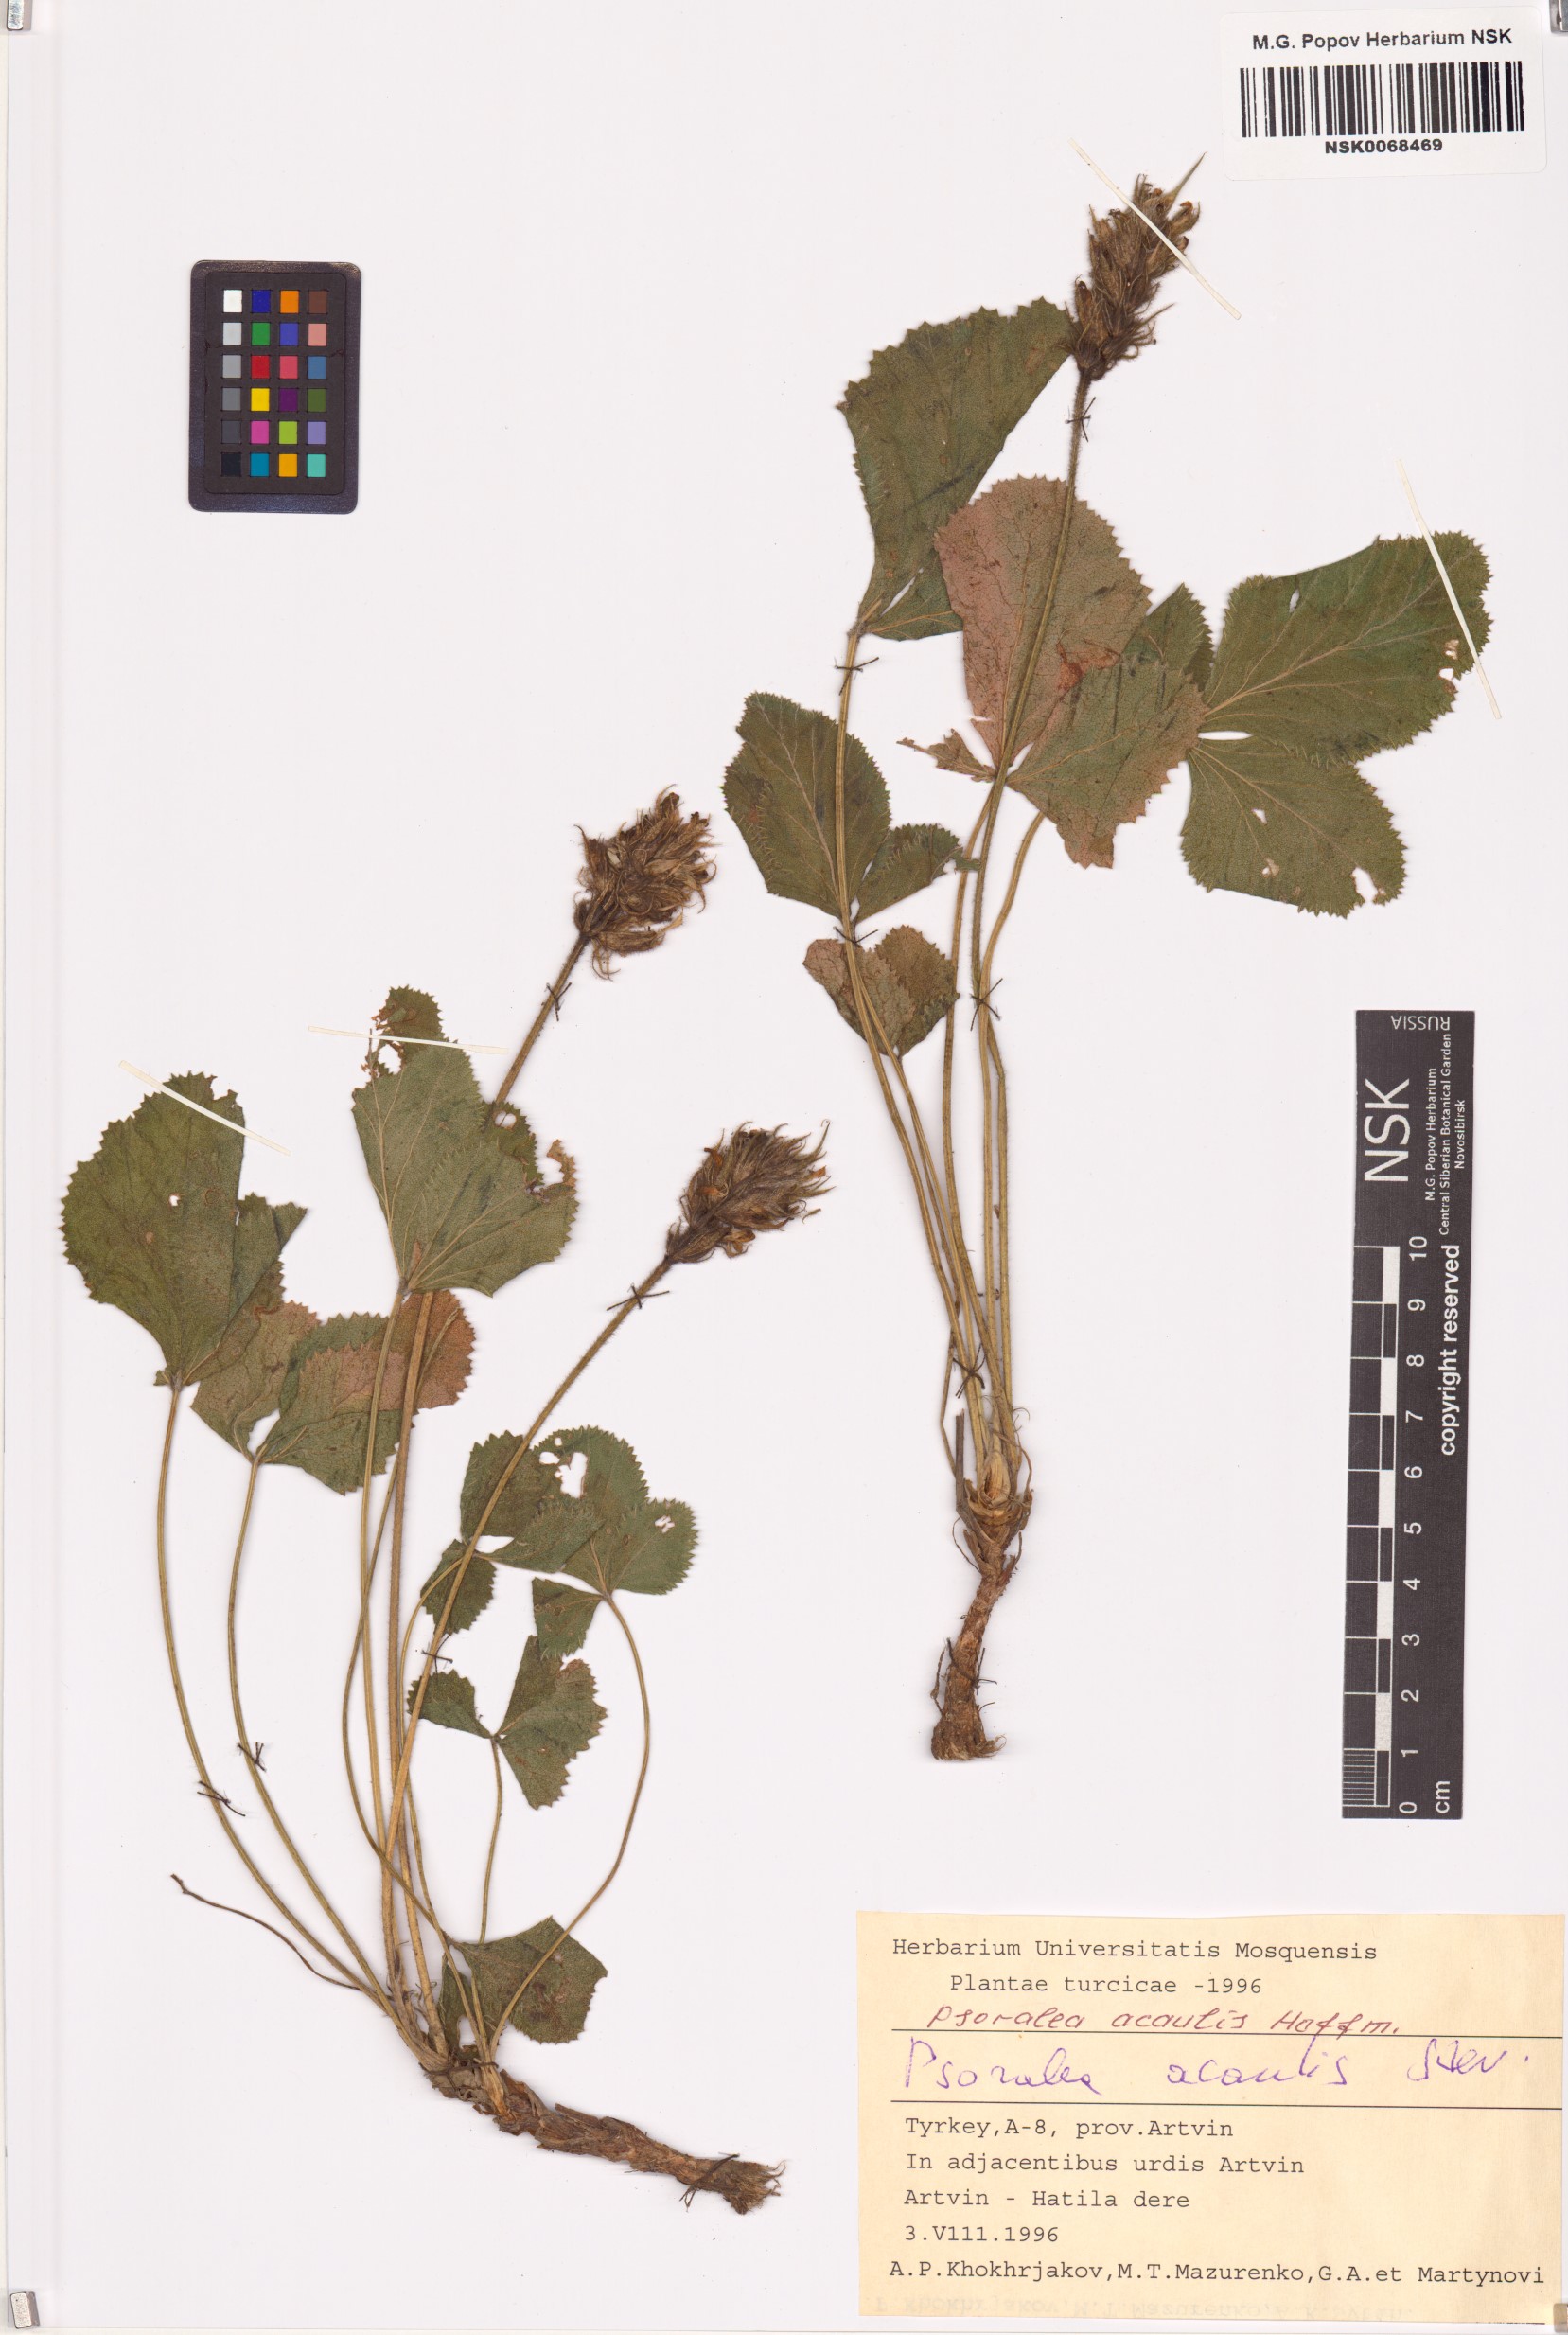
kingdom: Plantae
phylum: Tracheophyta
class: Magnoliopsida
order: Fabales
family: Fabaceae
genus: Kartalinia
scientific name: Kartalinia acaulis
